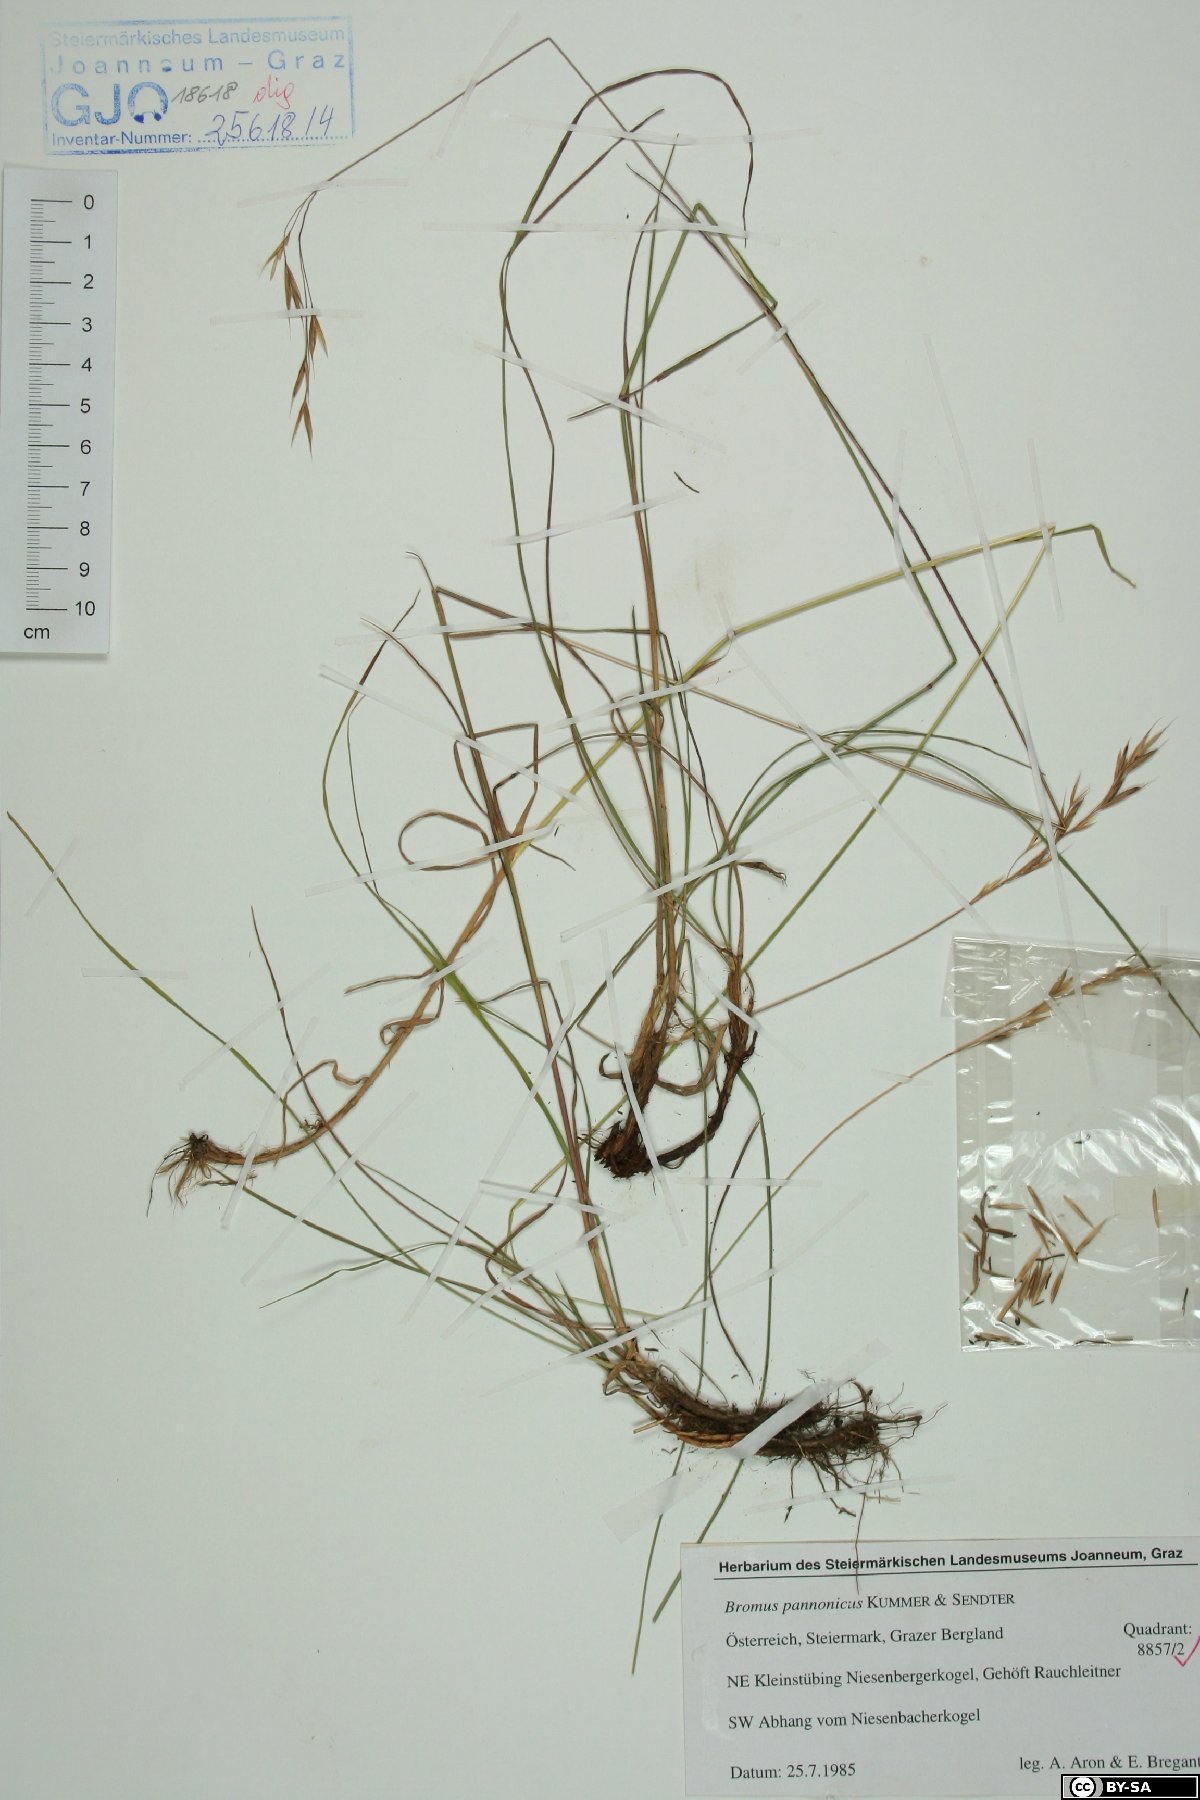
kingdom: Plantae
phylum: Tracheophyta
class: Liliopsida
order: Poales
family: Poaceae
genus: Bromus
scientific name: Bromus pannonicus
